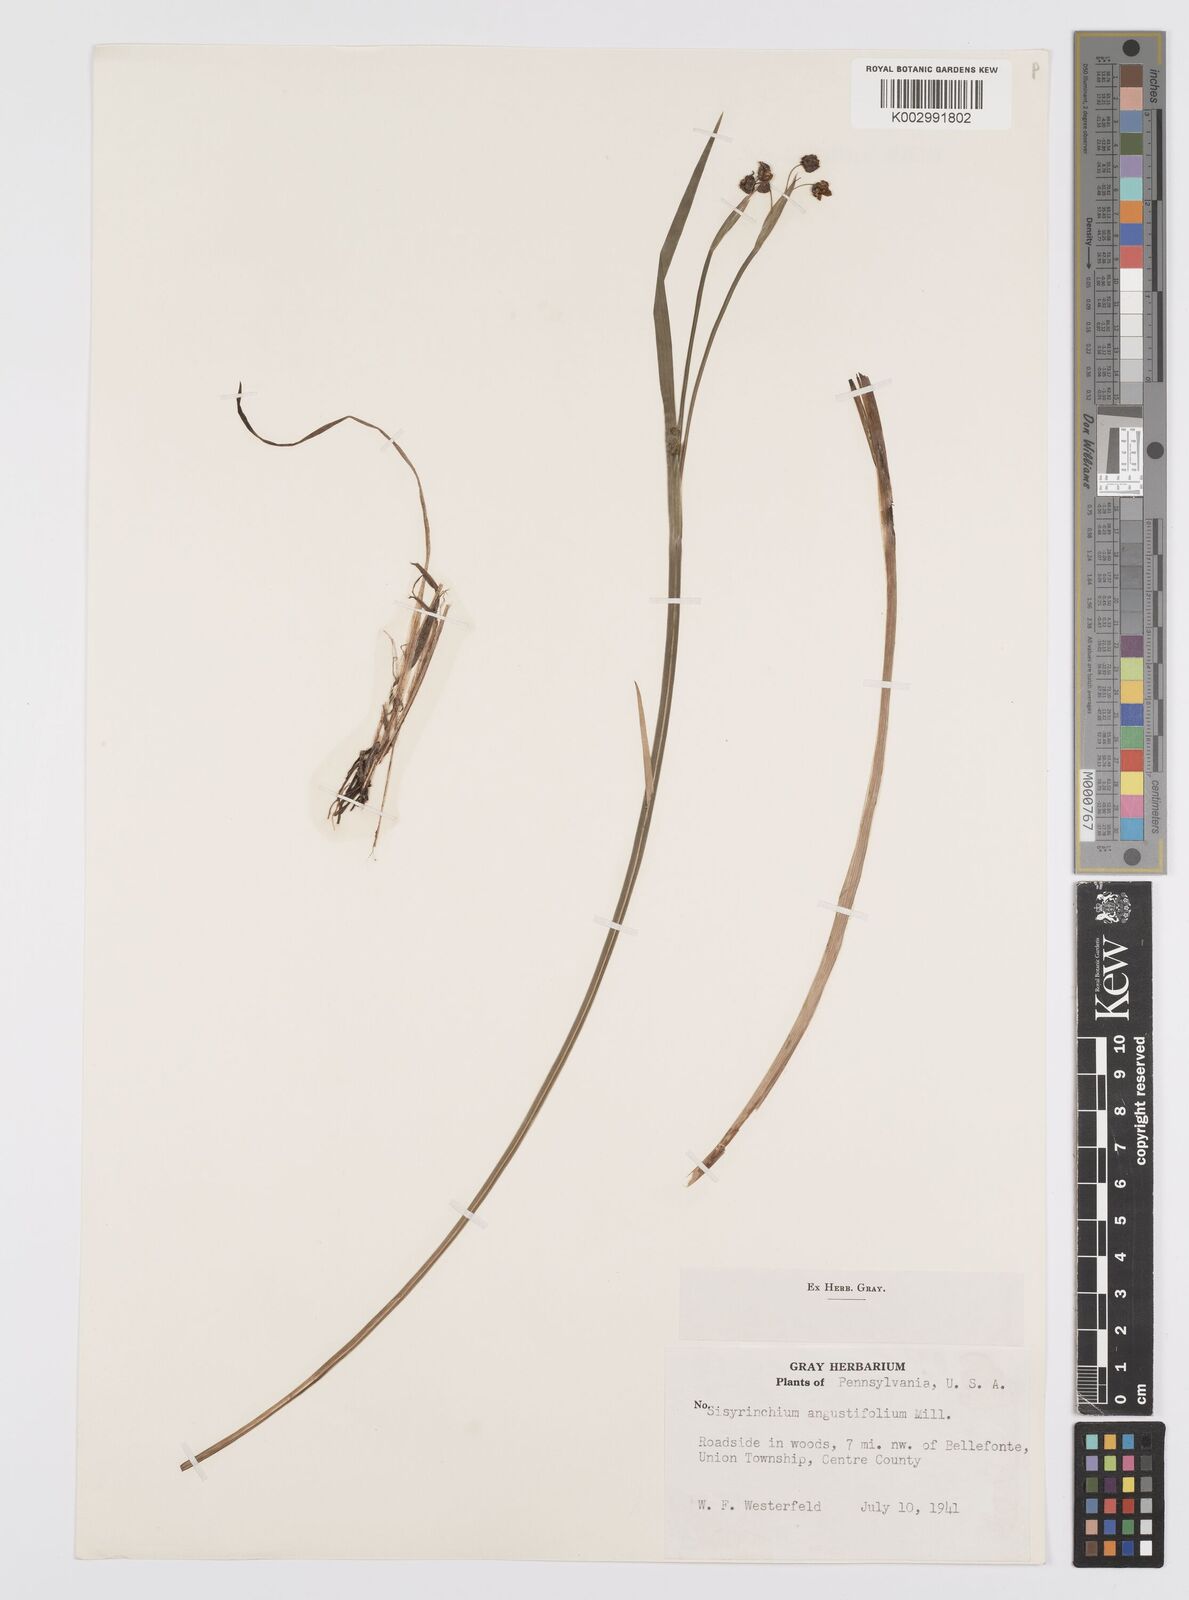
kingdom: Plantae
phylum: Tracheophyta
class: Liliopsida
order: Asparagales
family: Iridaceae
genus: Sisyrinchium
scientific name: Sisyrinchium bermudiana
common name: Blue-eyed-grass
